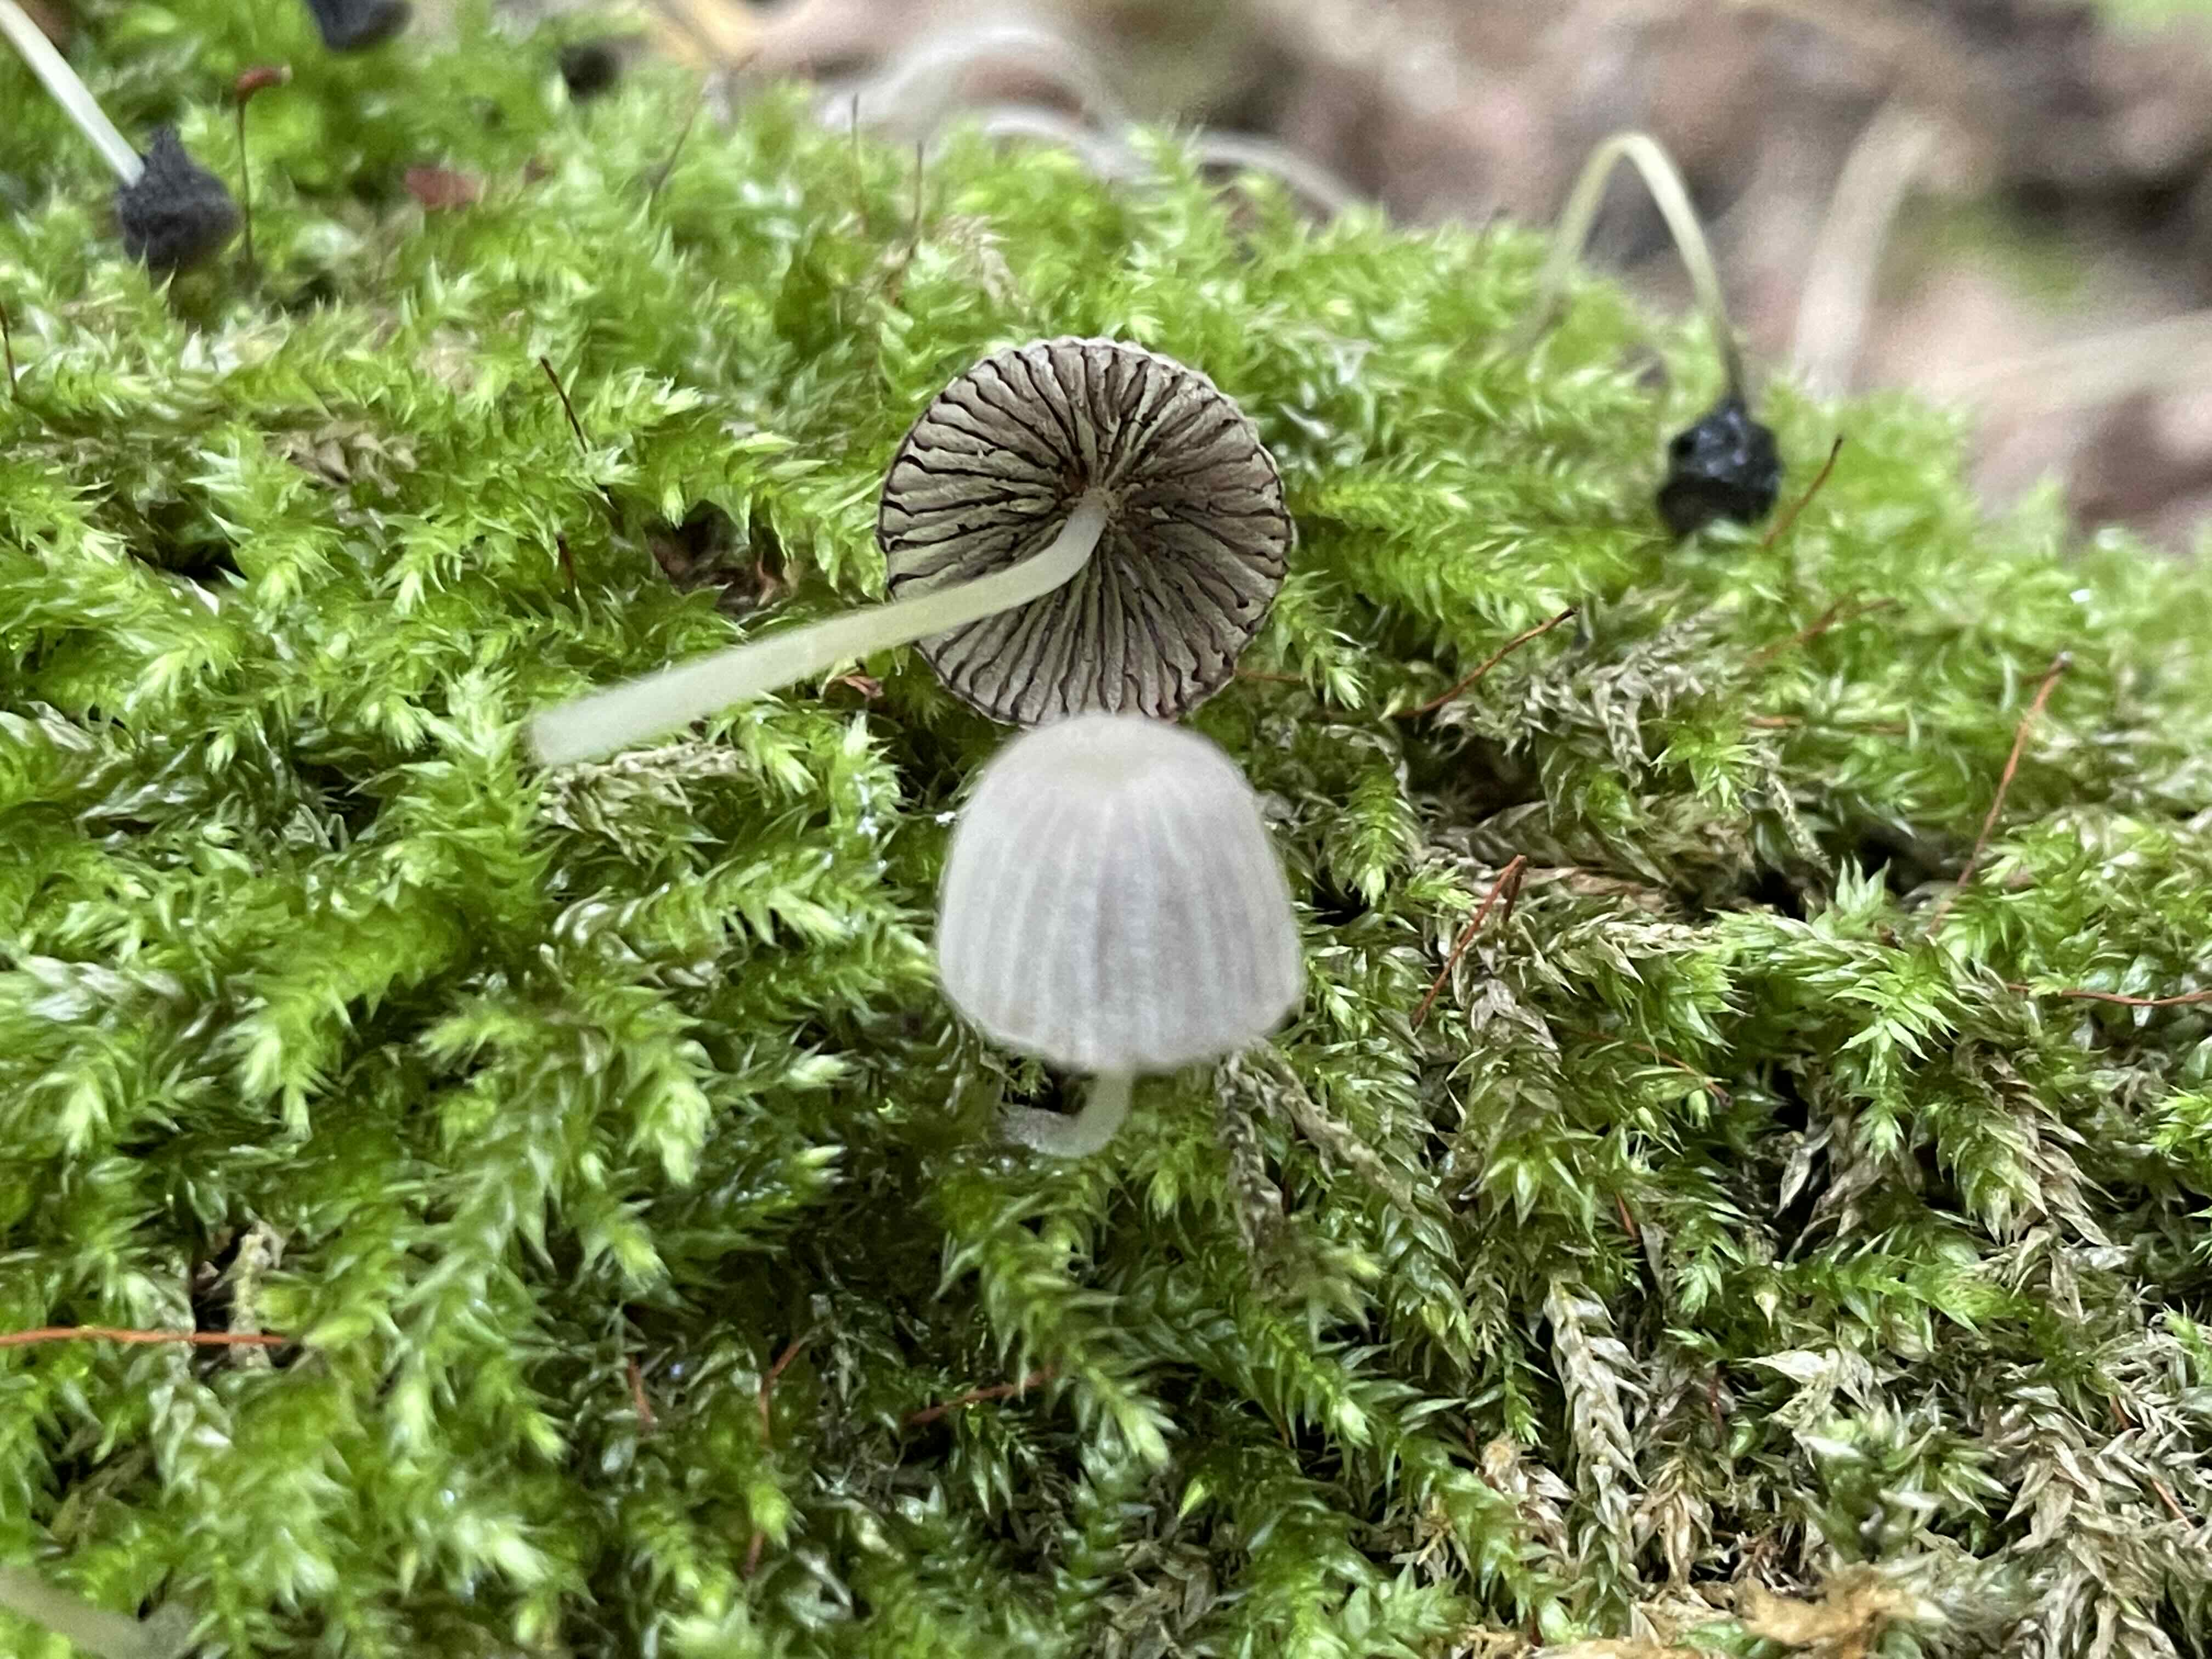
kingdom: Fungi
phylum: Basidiomycota
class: Agaricomycetes
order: Agaricales
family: Psathyrellaceae
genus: Coprinellus
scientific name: Coprinellus disseminatus
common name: bredsået blækhat
